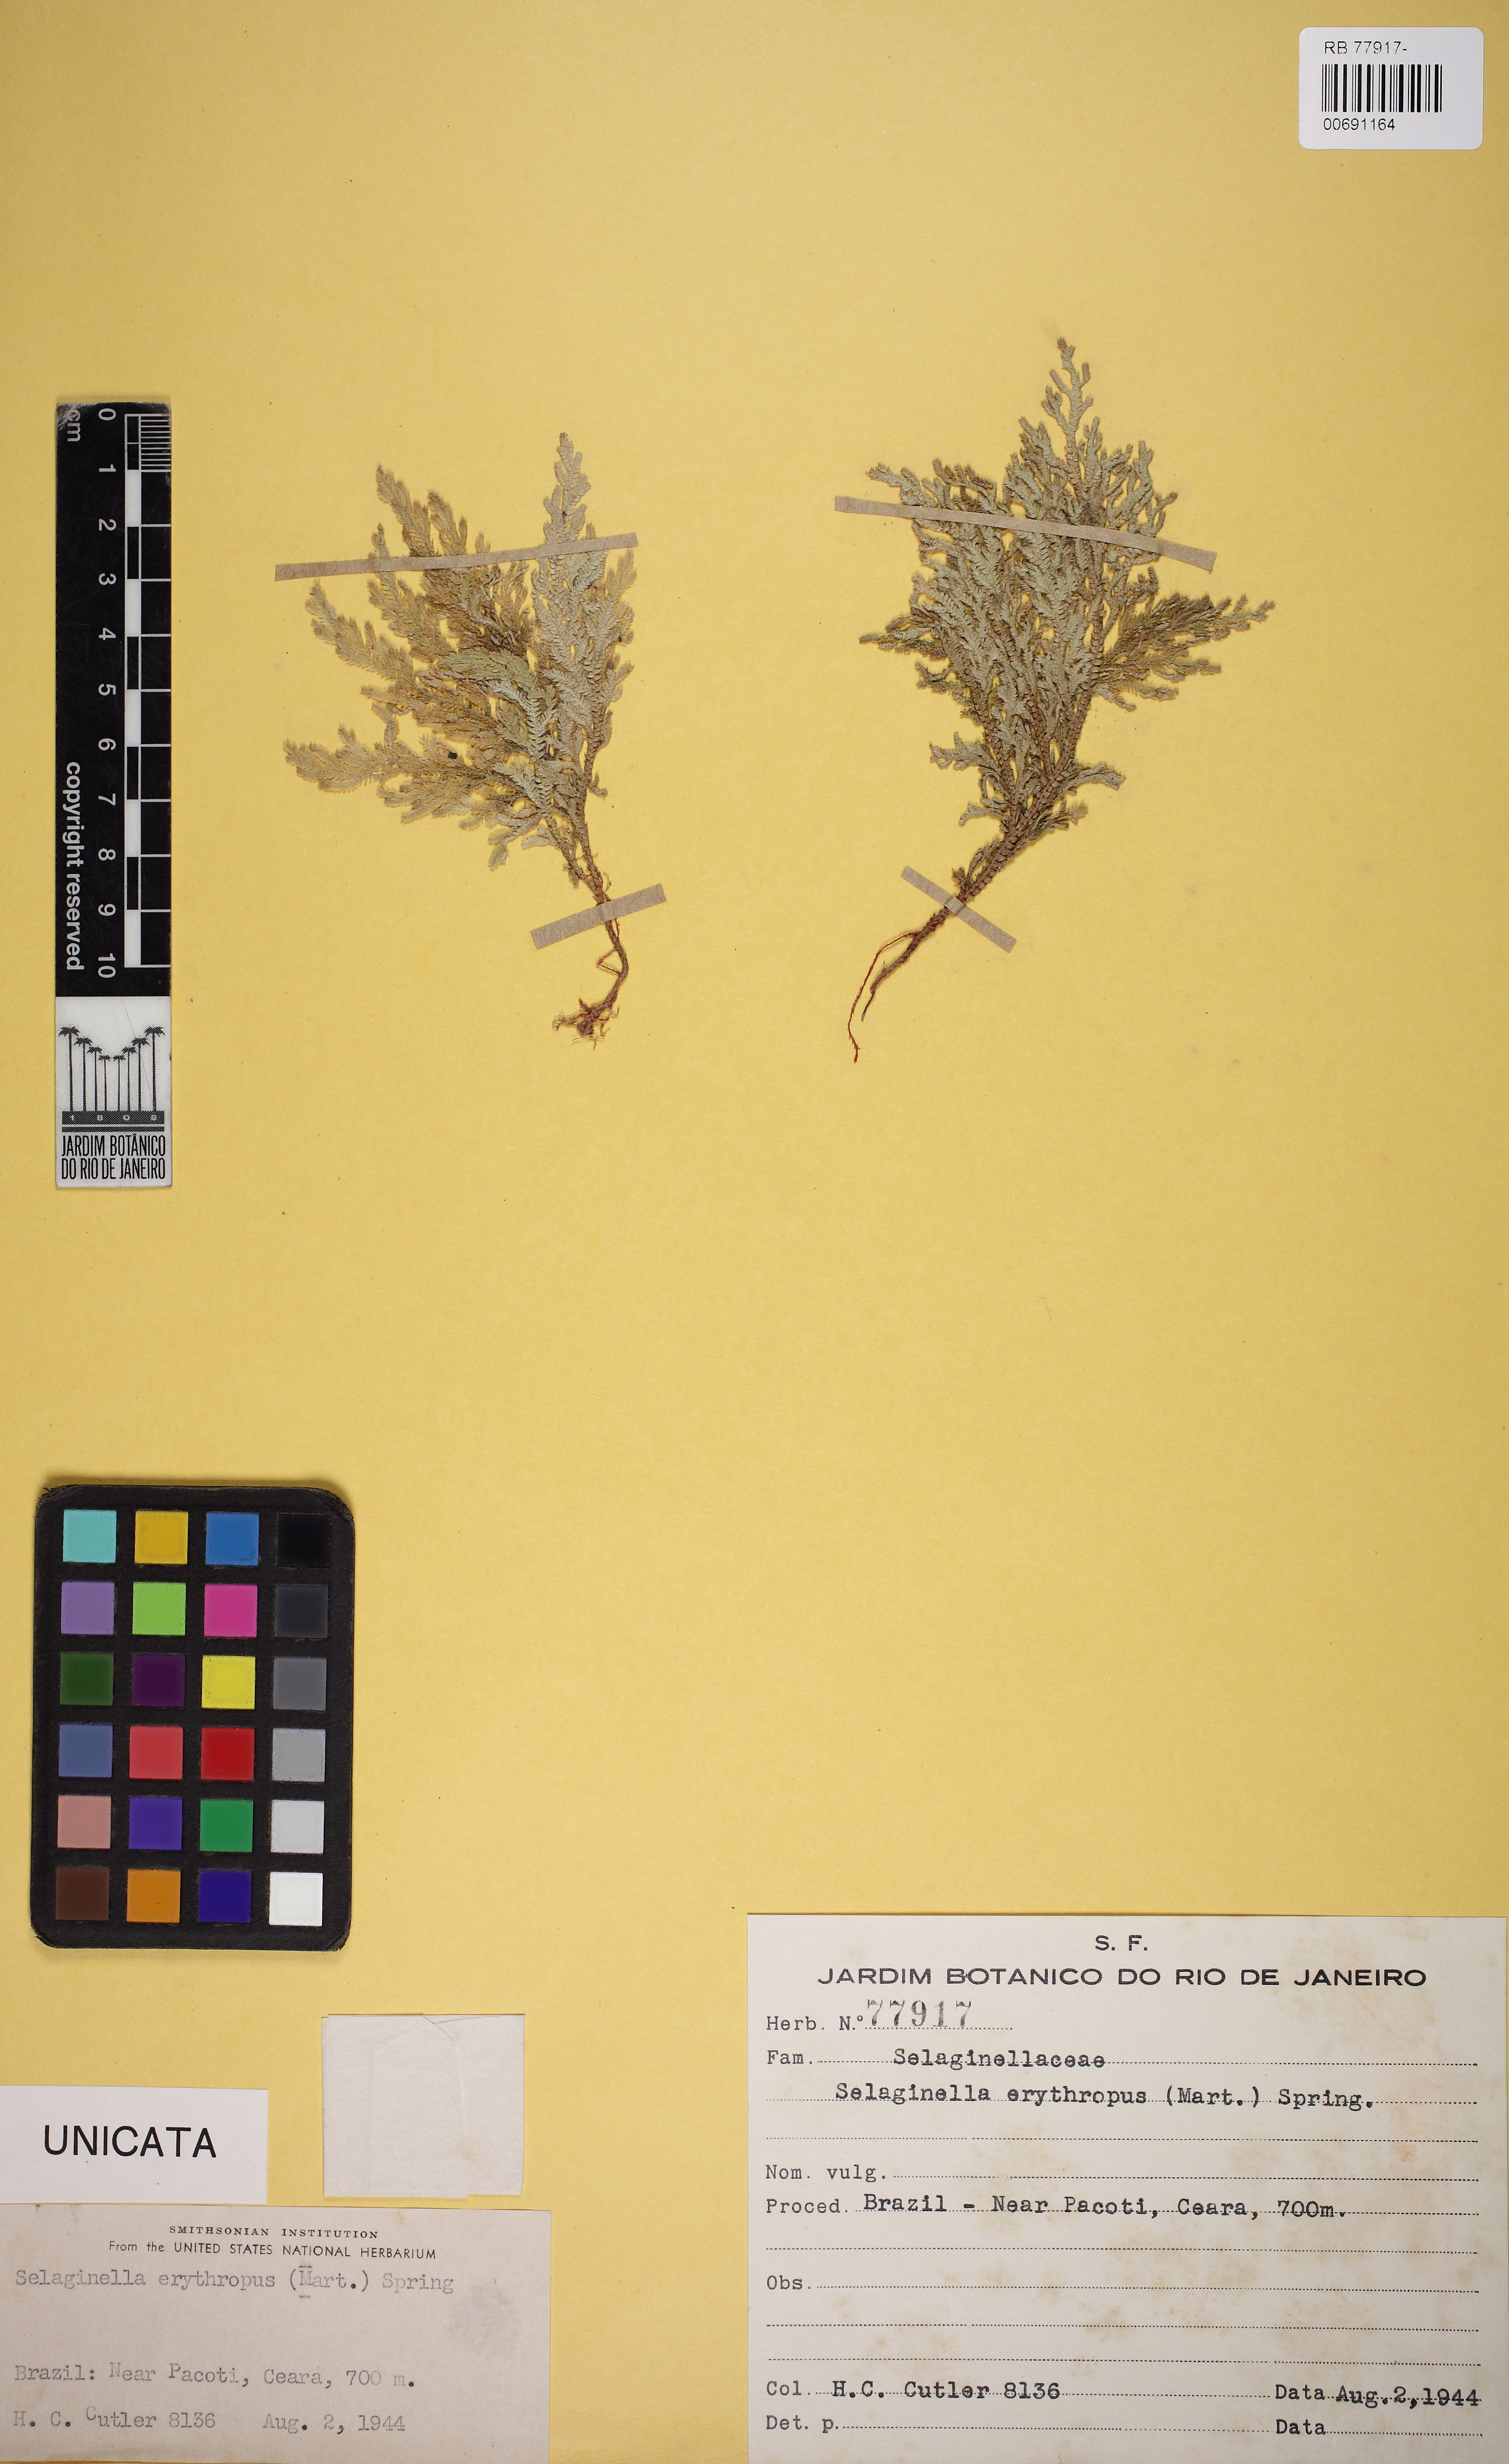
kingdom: Plantae
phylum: Tracheophyta
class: Lycopodiopsida
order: Selaginellales
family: Selaginellaceae
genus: Selaginella
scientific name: Selaginella erythropus
